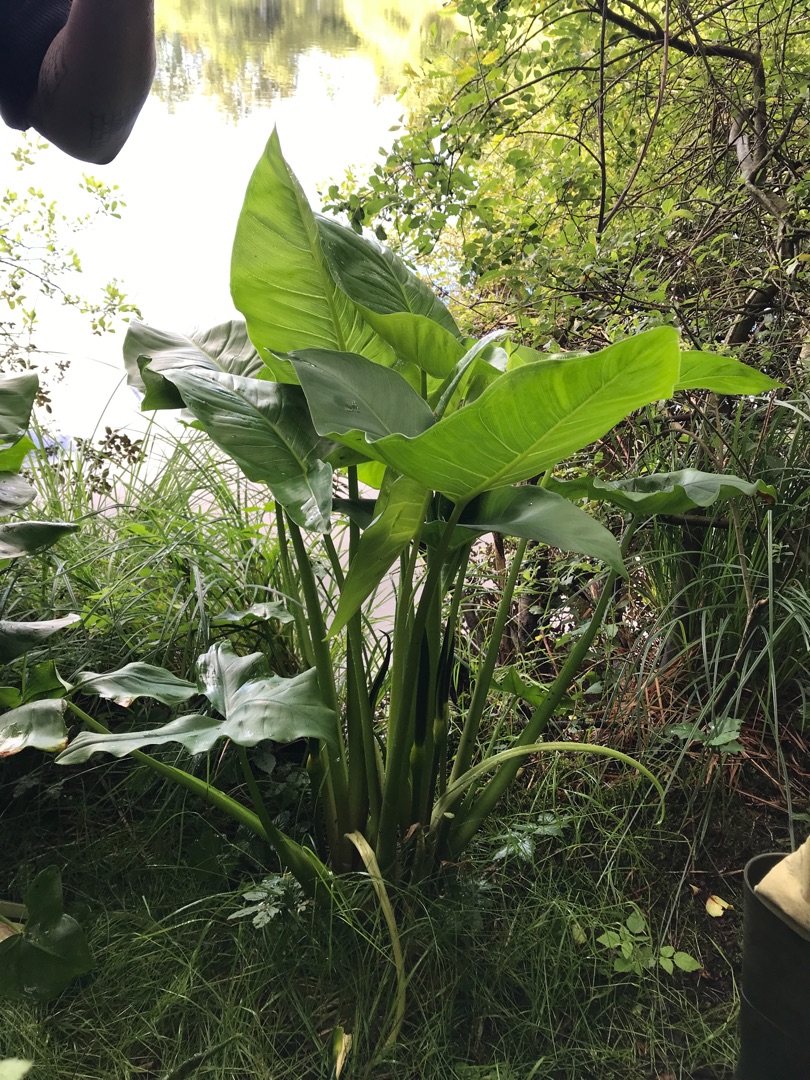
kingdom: Plantae
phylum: Tracheophyta
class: Liliopsida
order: Alismatales
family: Araceae
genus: Peltandra
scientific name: Peltandra virginica
